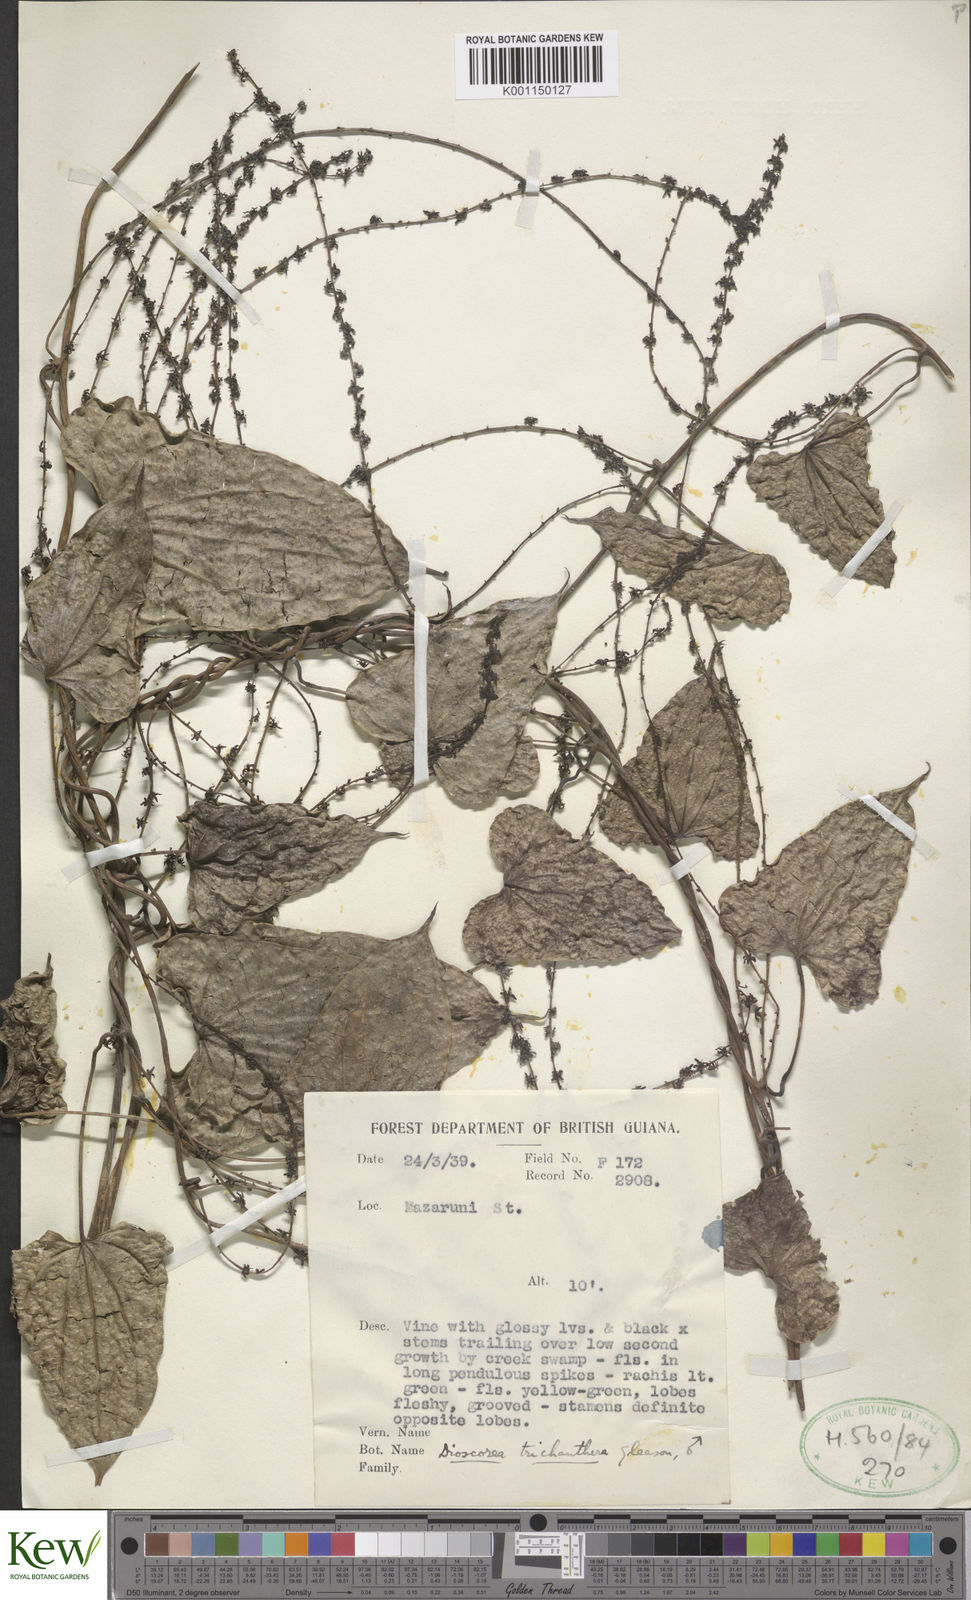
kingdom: Plantae
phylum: Tracheophyta
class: Liliopsida
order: Dioscoreales
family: Dioscoreaceae
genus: Dioscorea
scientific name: Dioscorea trichanthera
